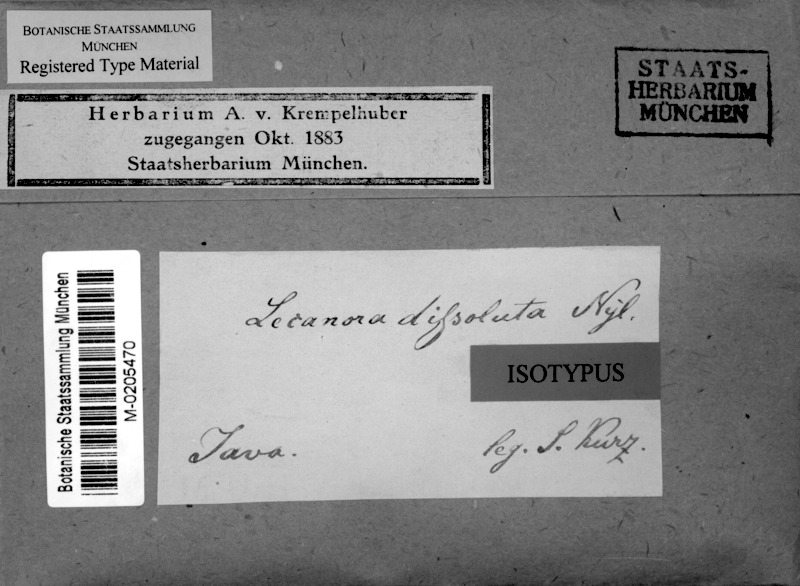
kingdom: Fungi
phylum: Ascomycota
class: Lecanoromycetes
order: Lecanorales
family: Lecanoraceae
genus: Lecanora
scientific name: Lecanora dissoluta
